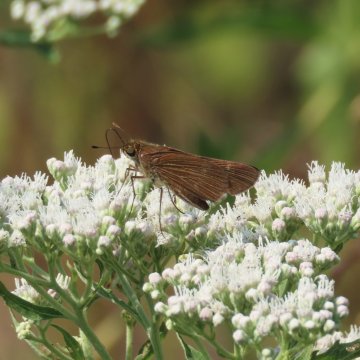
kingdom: Animalia
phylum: Arthropoda
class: Insecta
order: Lepidoptera
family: Hesperiidae
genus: Panoquina
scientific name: Panoquina ocola
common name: Ocola Skipper
